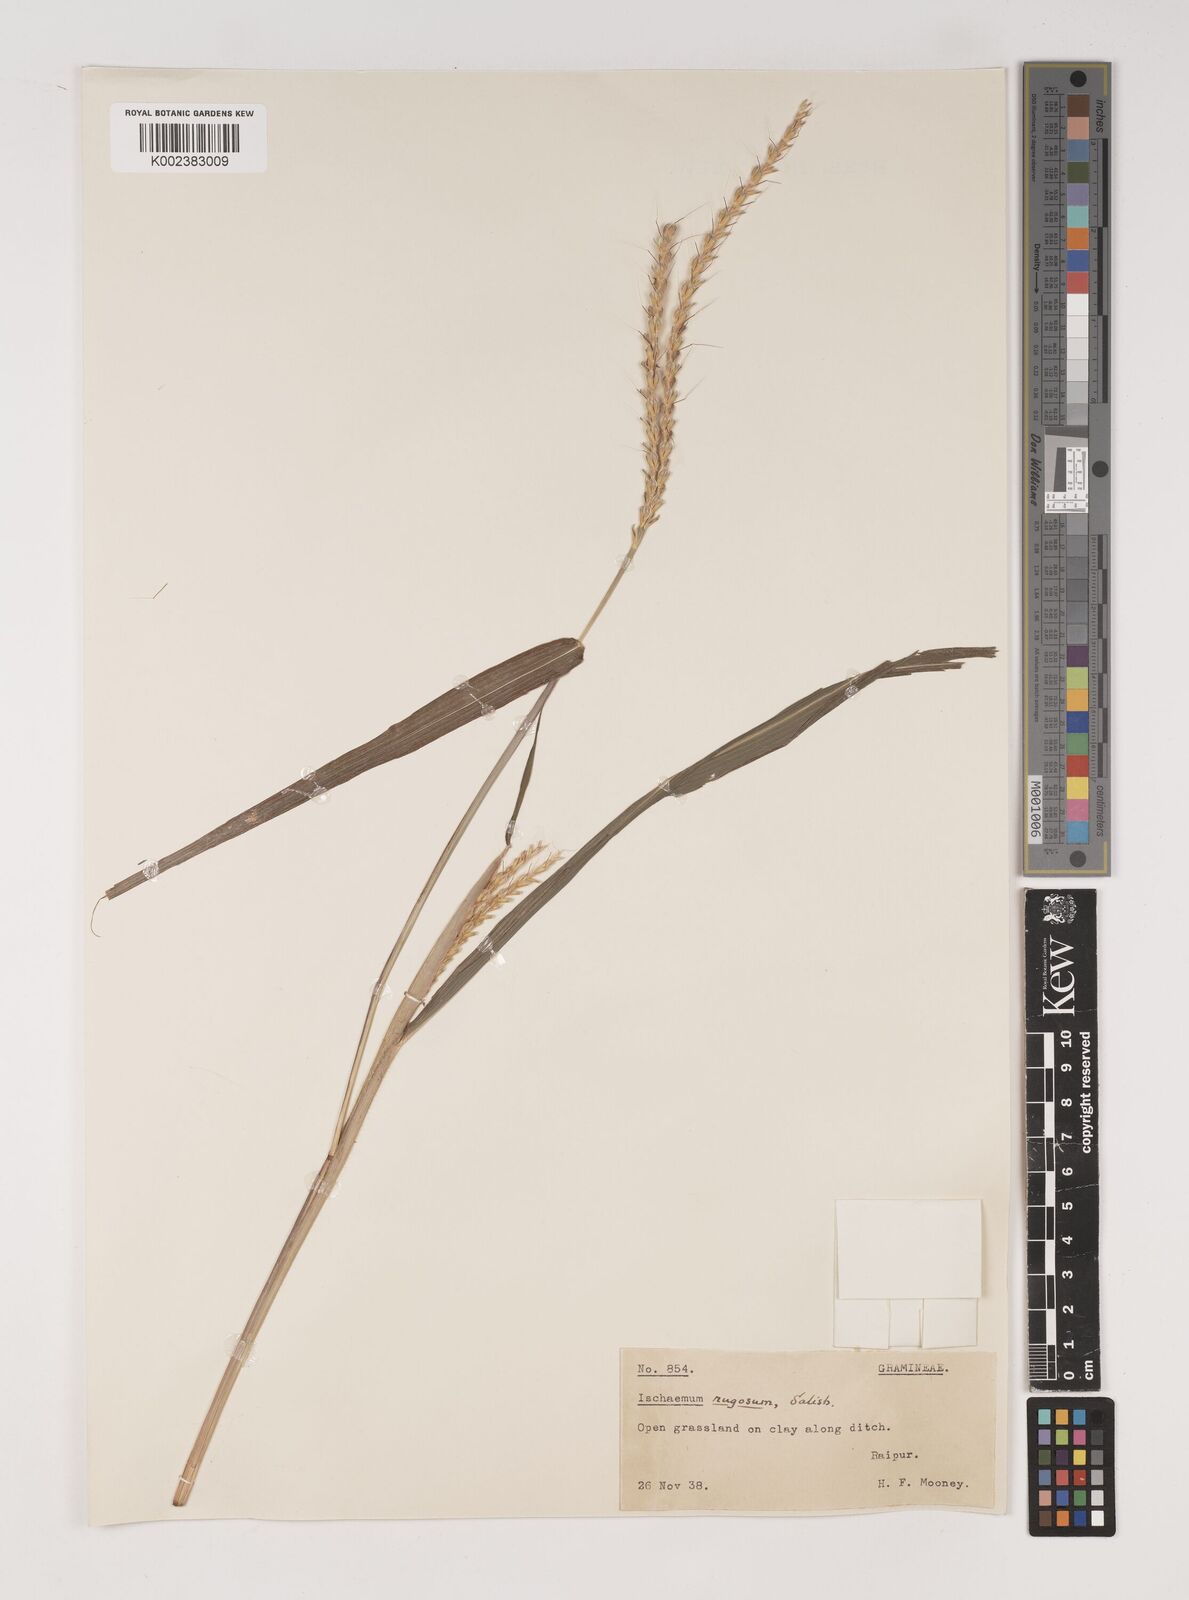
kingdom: Plantae
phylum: Tracheophyta
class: Liliopsida
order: Poales
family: Poaceae
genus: Ischaemum
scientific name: Ischaemum rugosum
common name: Saramatta grass
